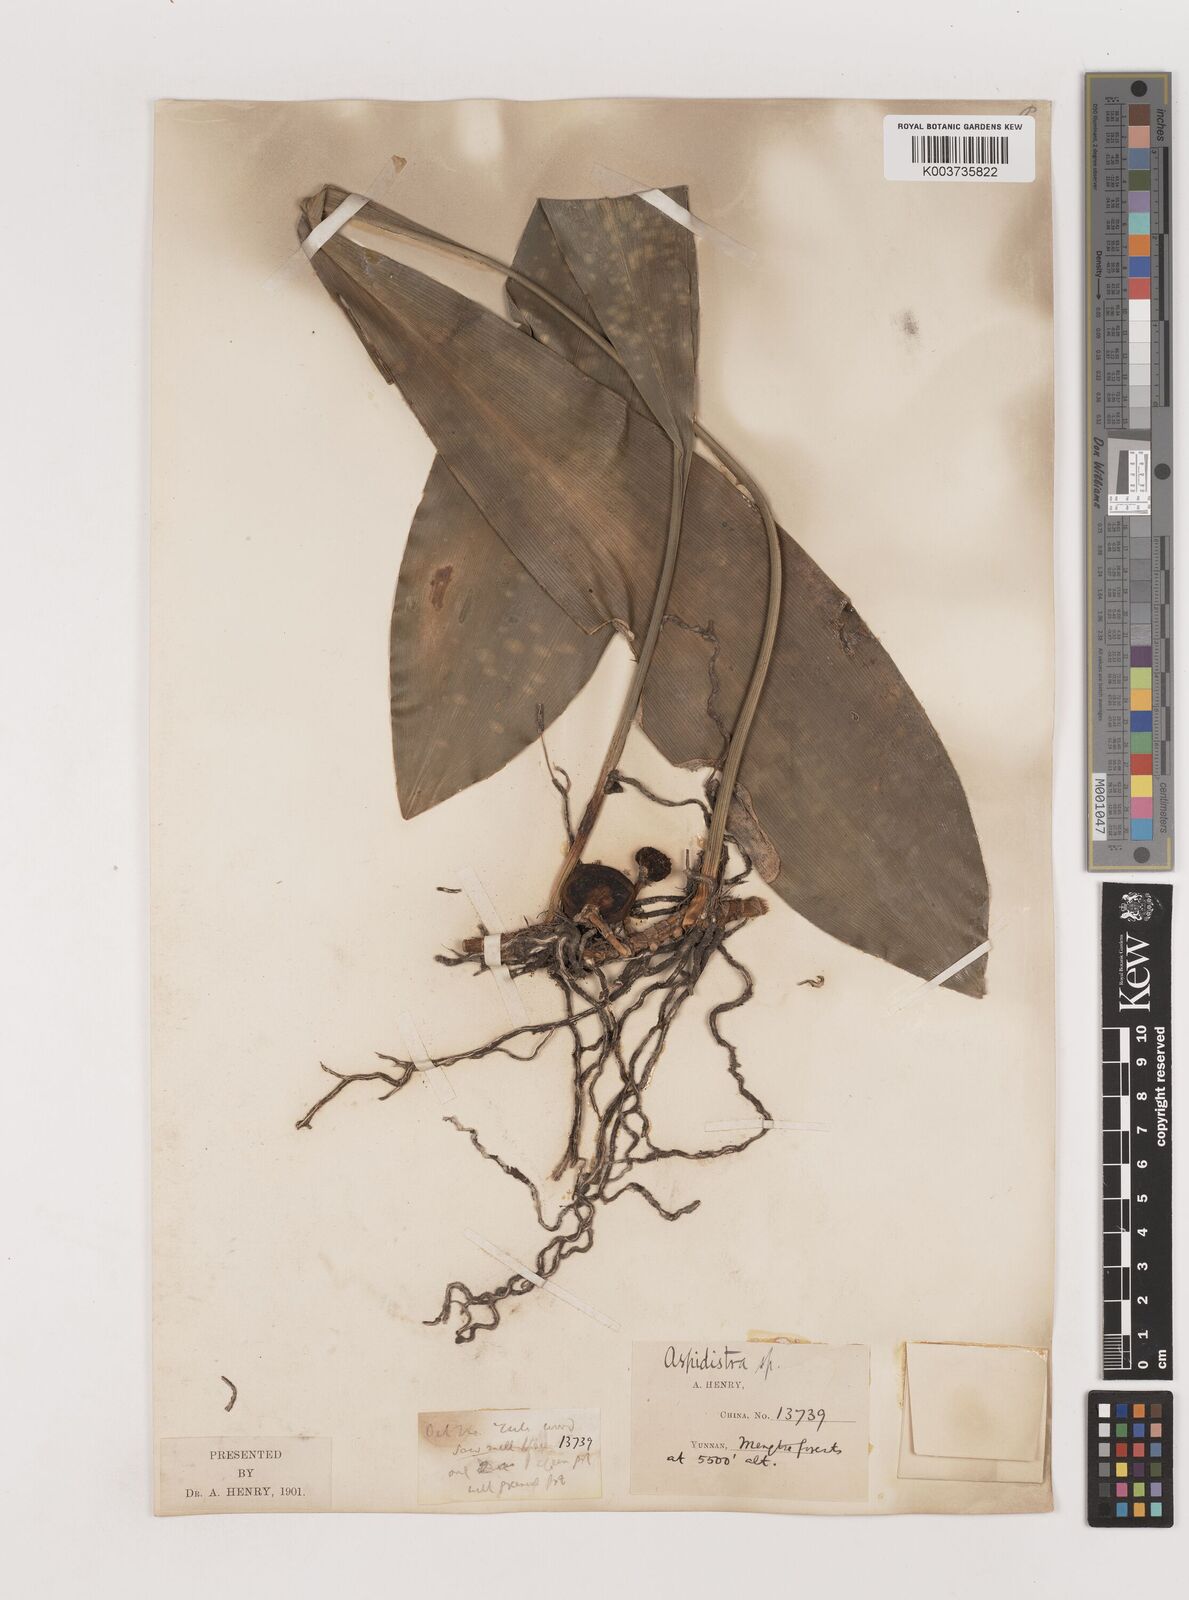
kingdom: Plantae
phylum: Tracheophyta
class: Liliopsida
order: Asparagales
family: Asparagaceae
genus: Aspidistra
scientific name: Aspidistra
